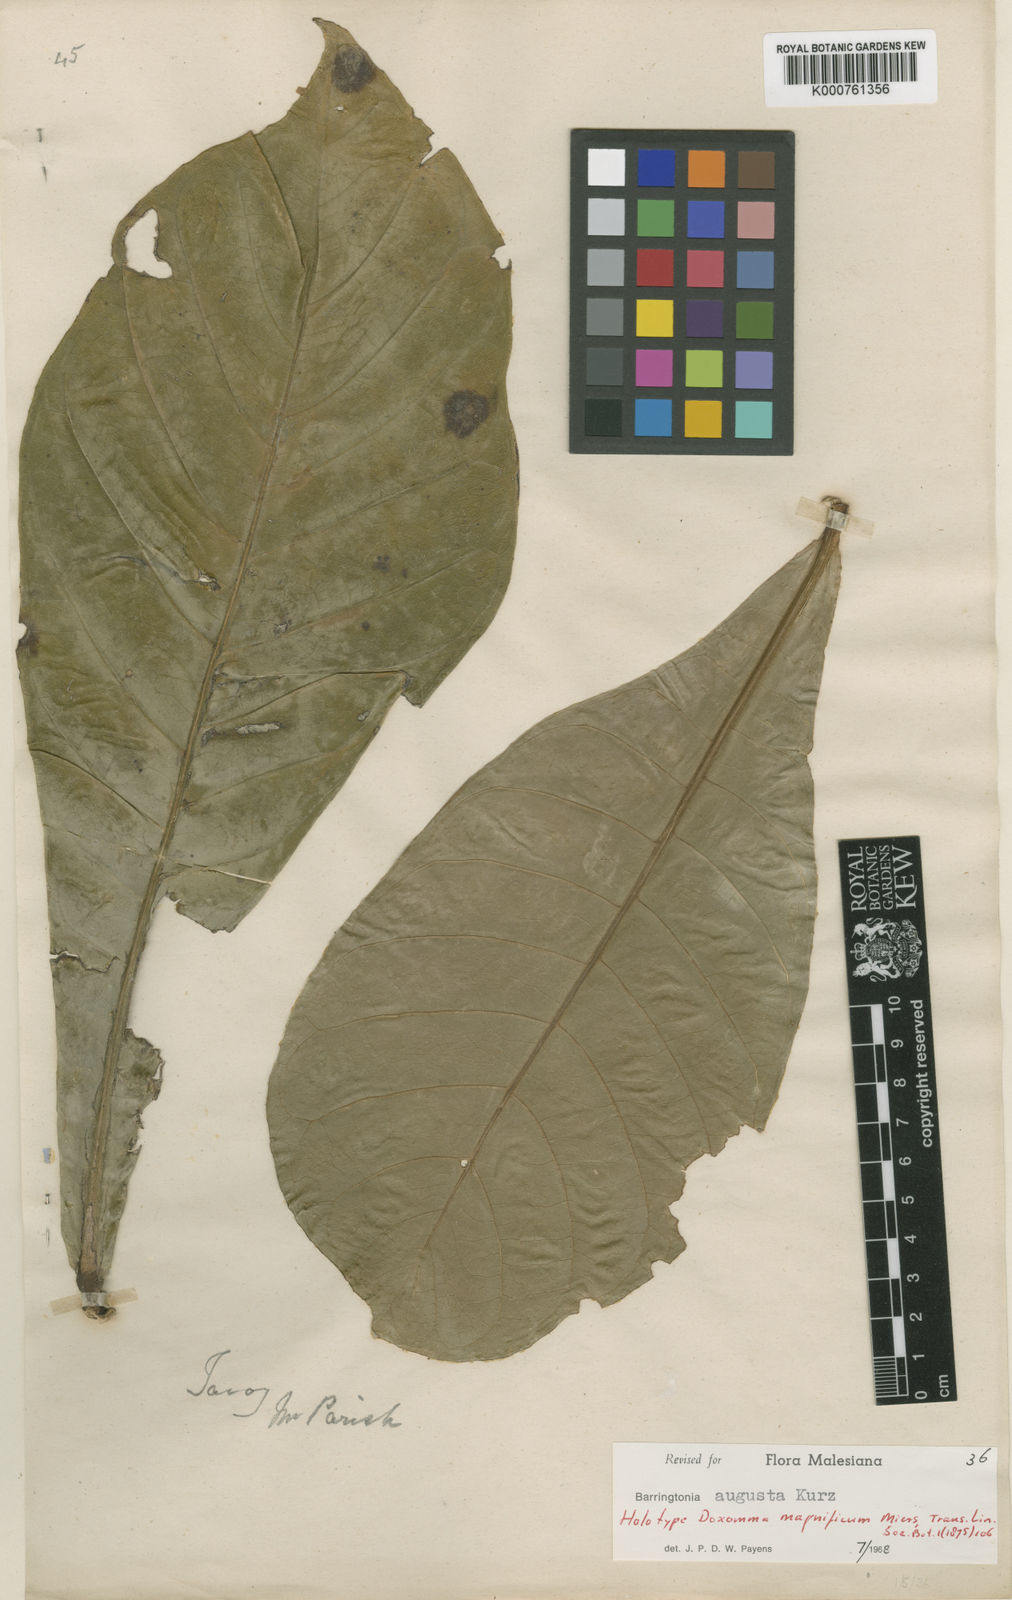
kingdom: Plantae
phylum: Tracheophyta
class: Magnoliopsida
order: Ericales
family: Lecythidaceae
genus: Barringtonia
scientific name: Barringtonia augusta
